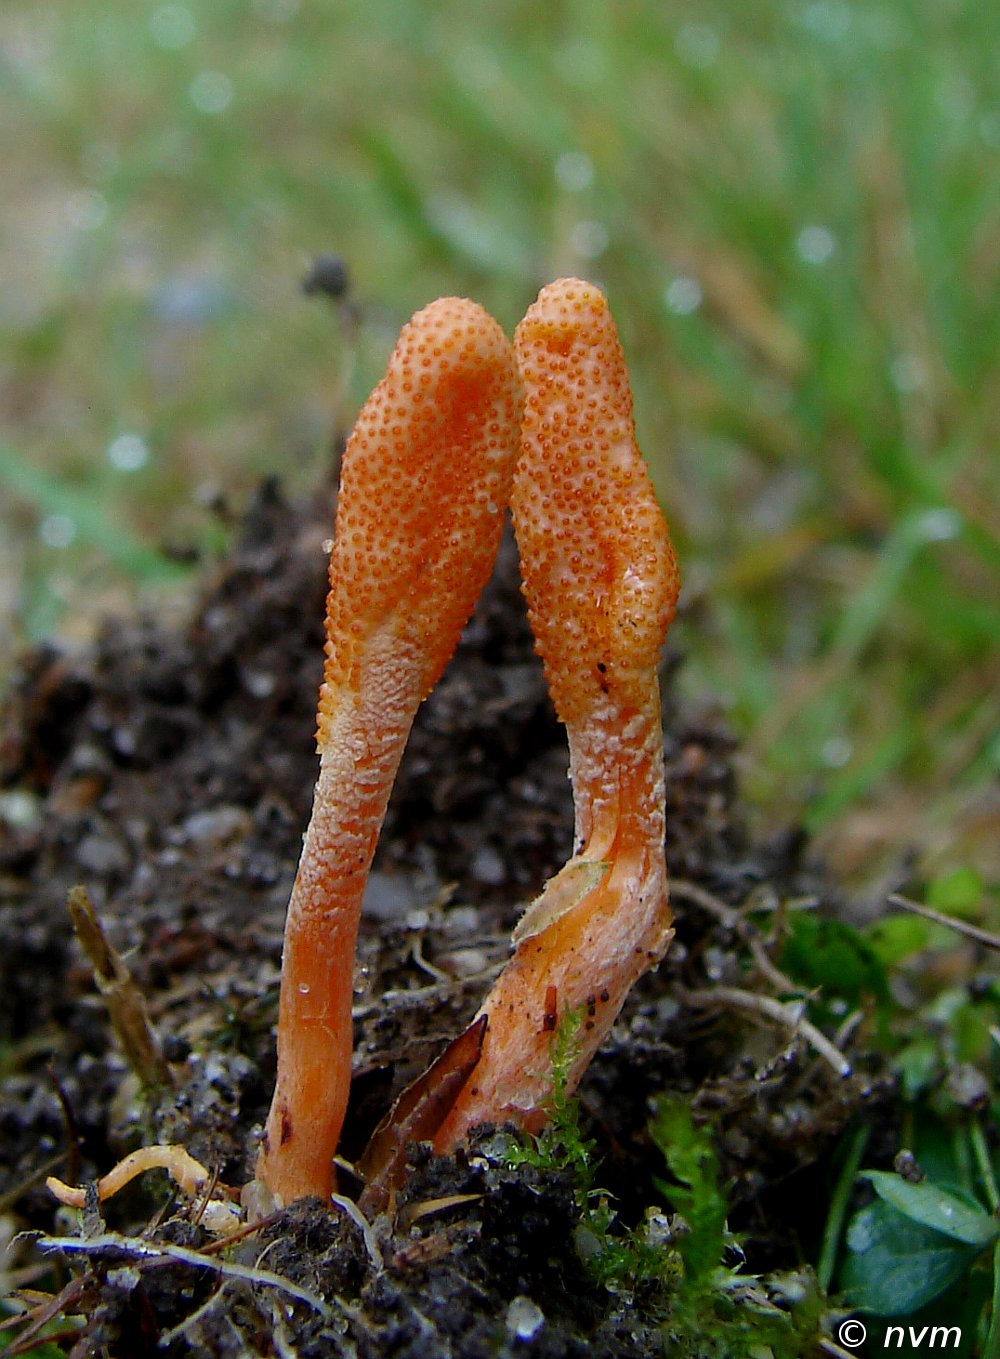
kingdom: Fungi
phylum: Ascomycota
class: Sordariomycetes
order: Hypocreales
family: Cordycipitaceae
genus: Cordyceps
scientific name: Cordyceps militaris
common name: puppe-snyltekølle
